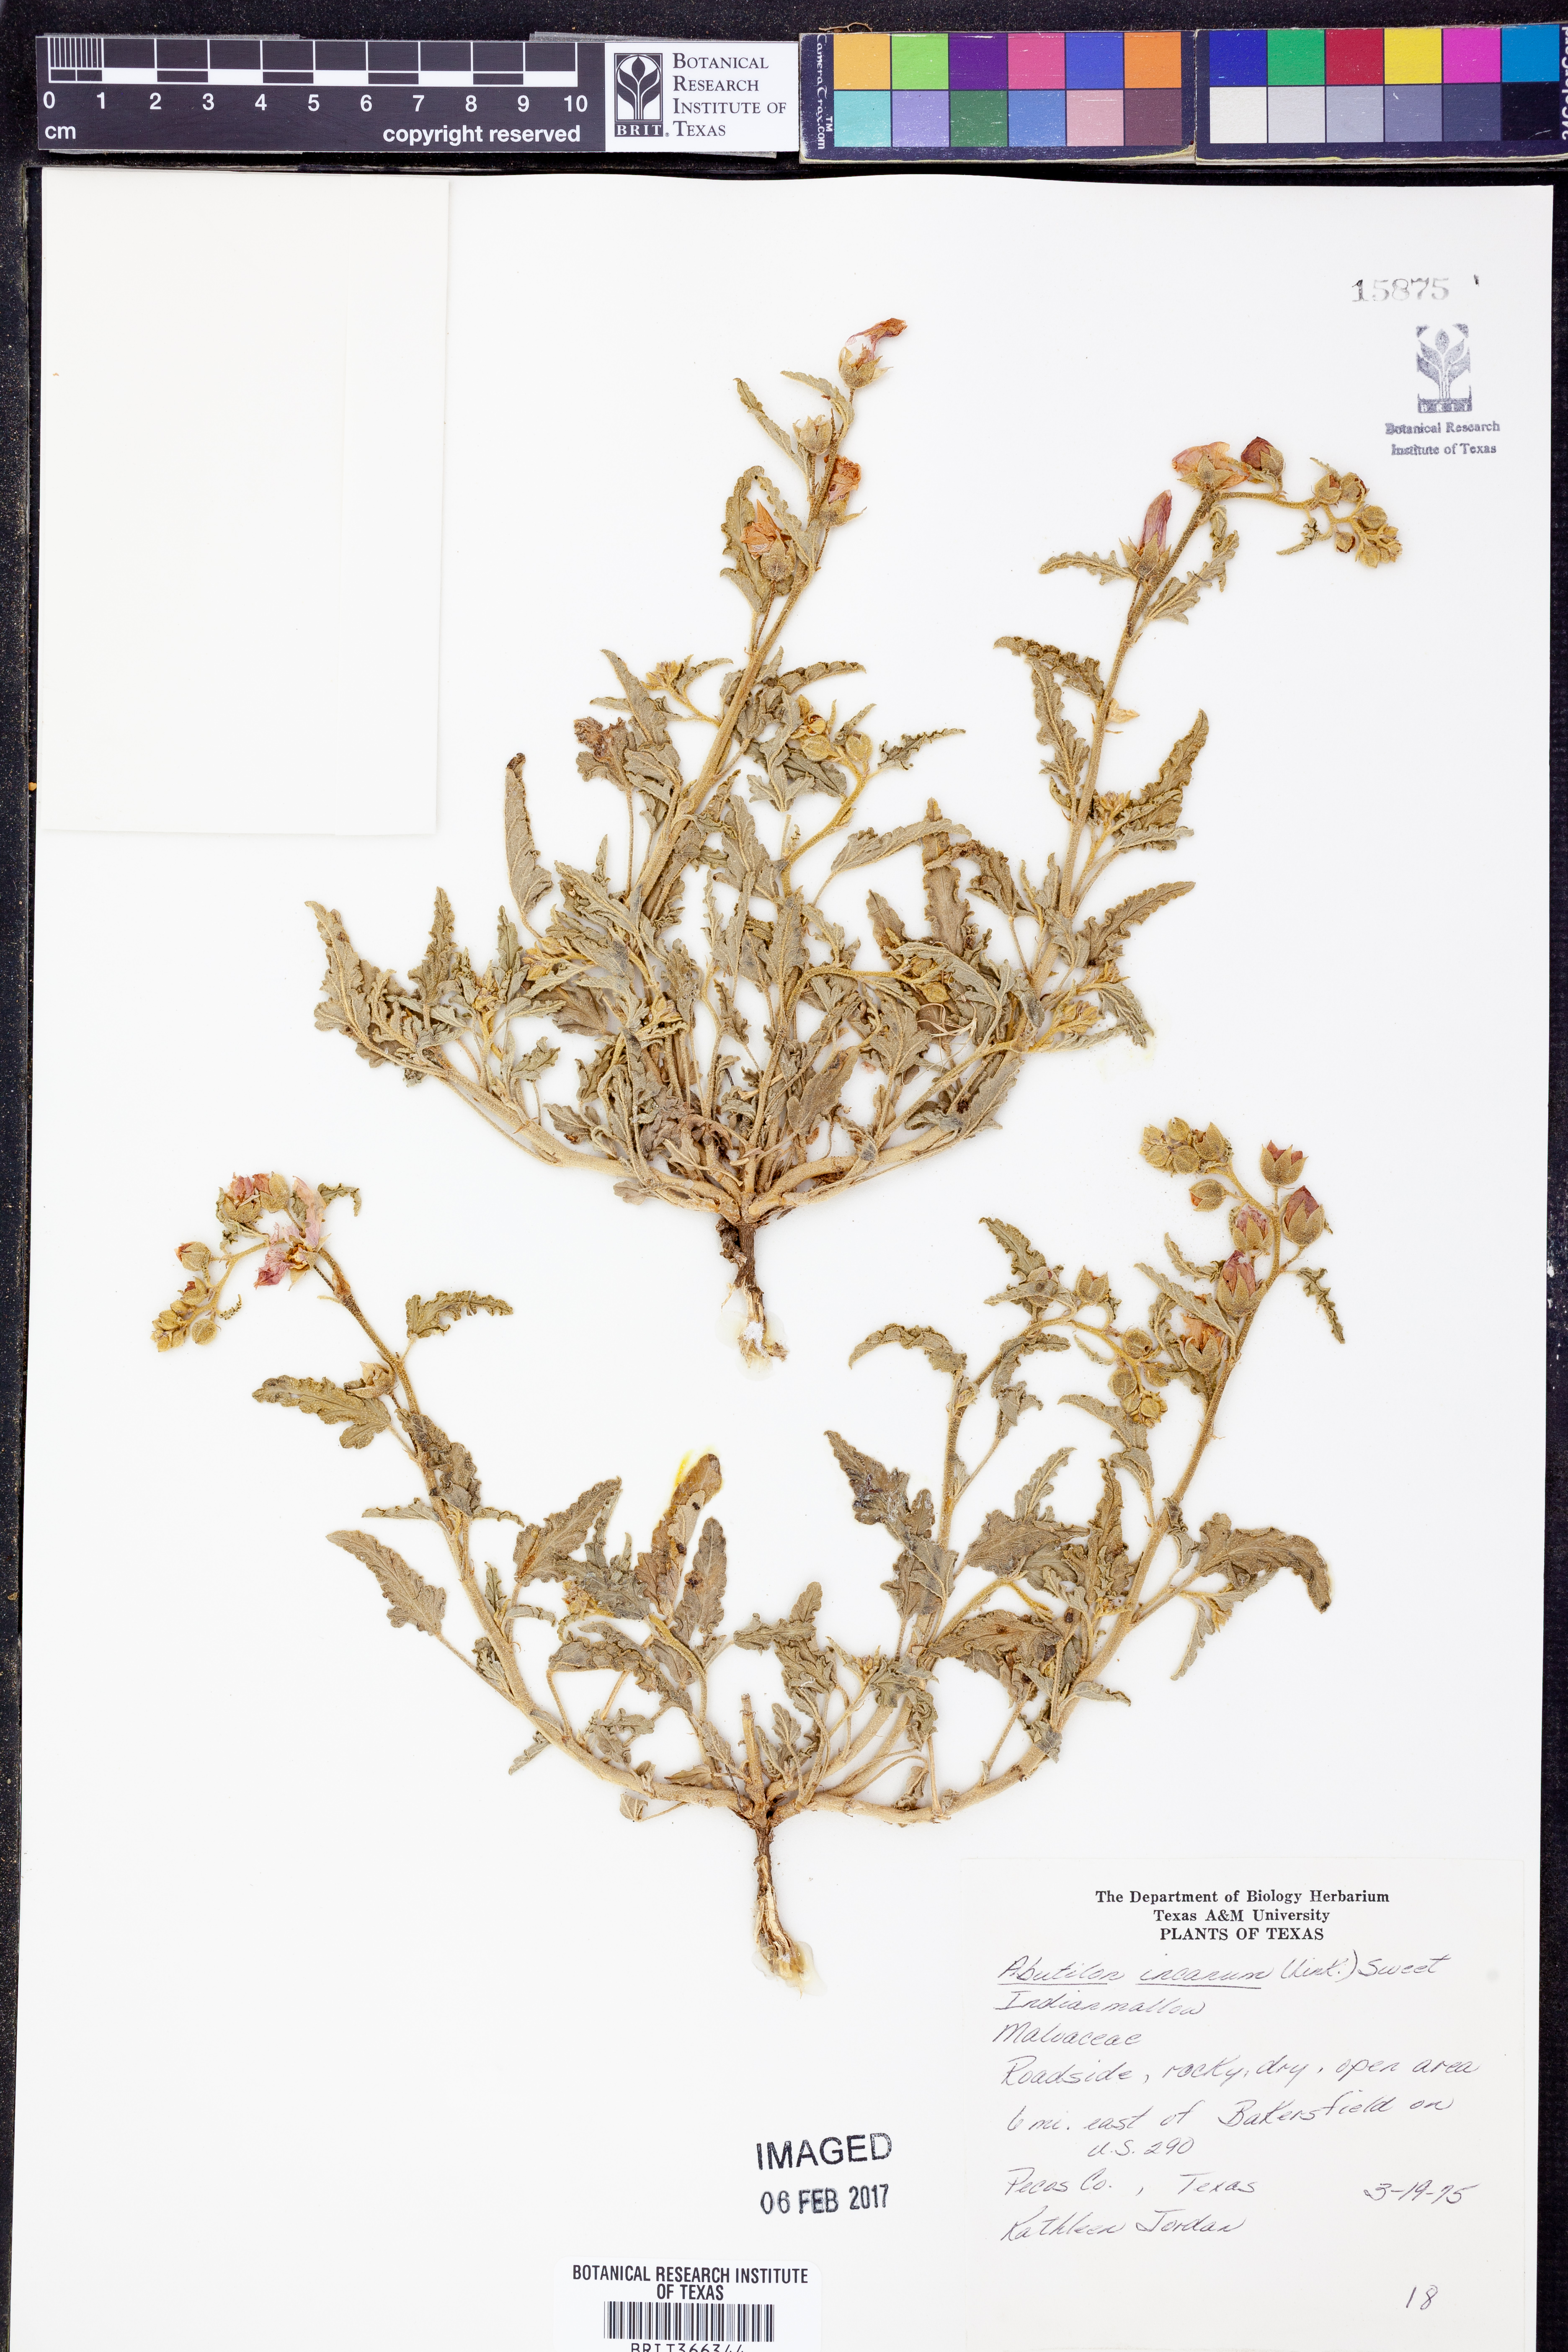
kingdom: Plantae
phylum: Tracheophyta
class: Magnoliopsida
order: Malvales
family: Malvaceae
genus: Abutilon
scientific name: Abutilon incanum
